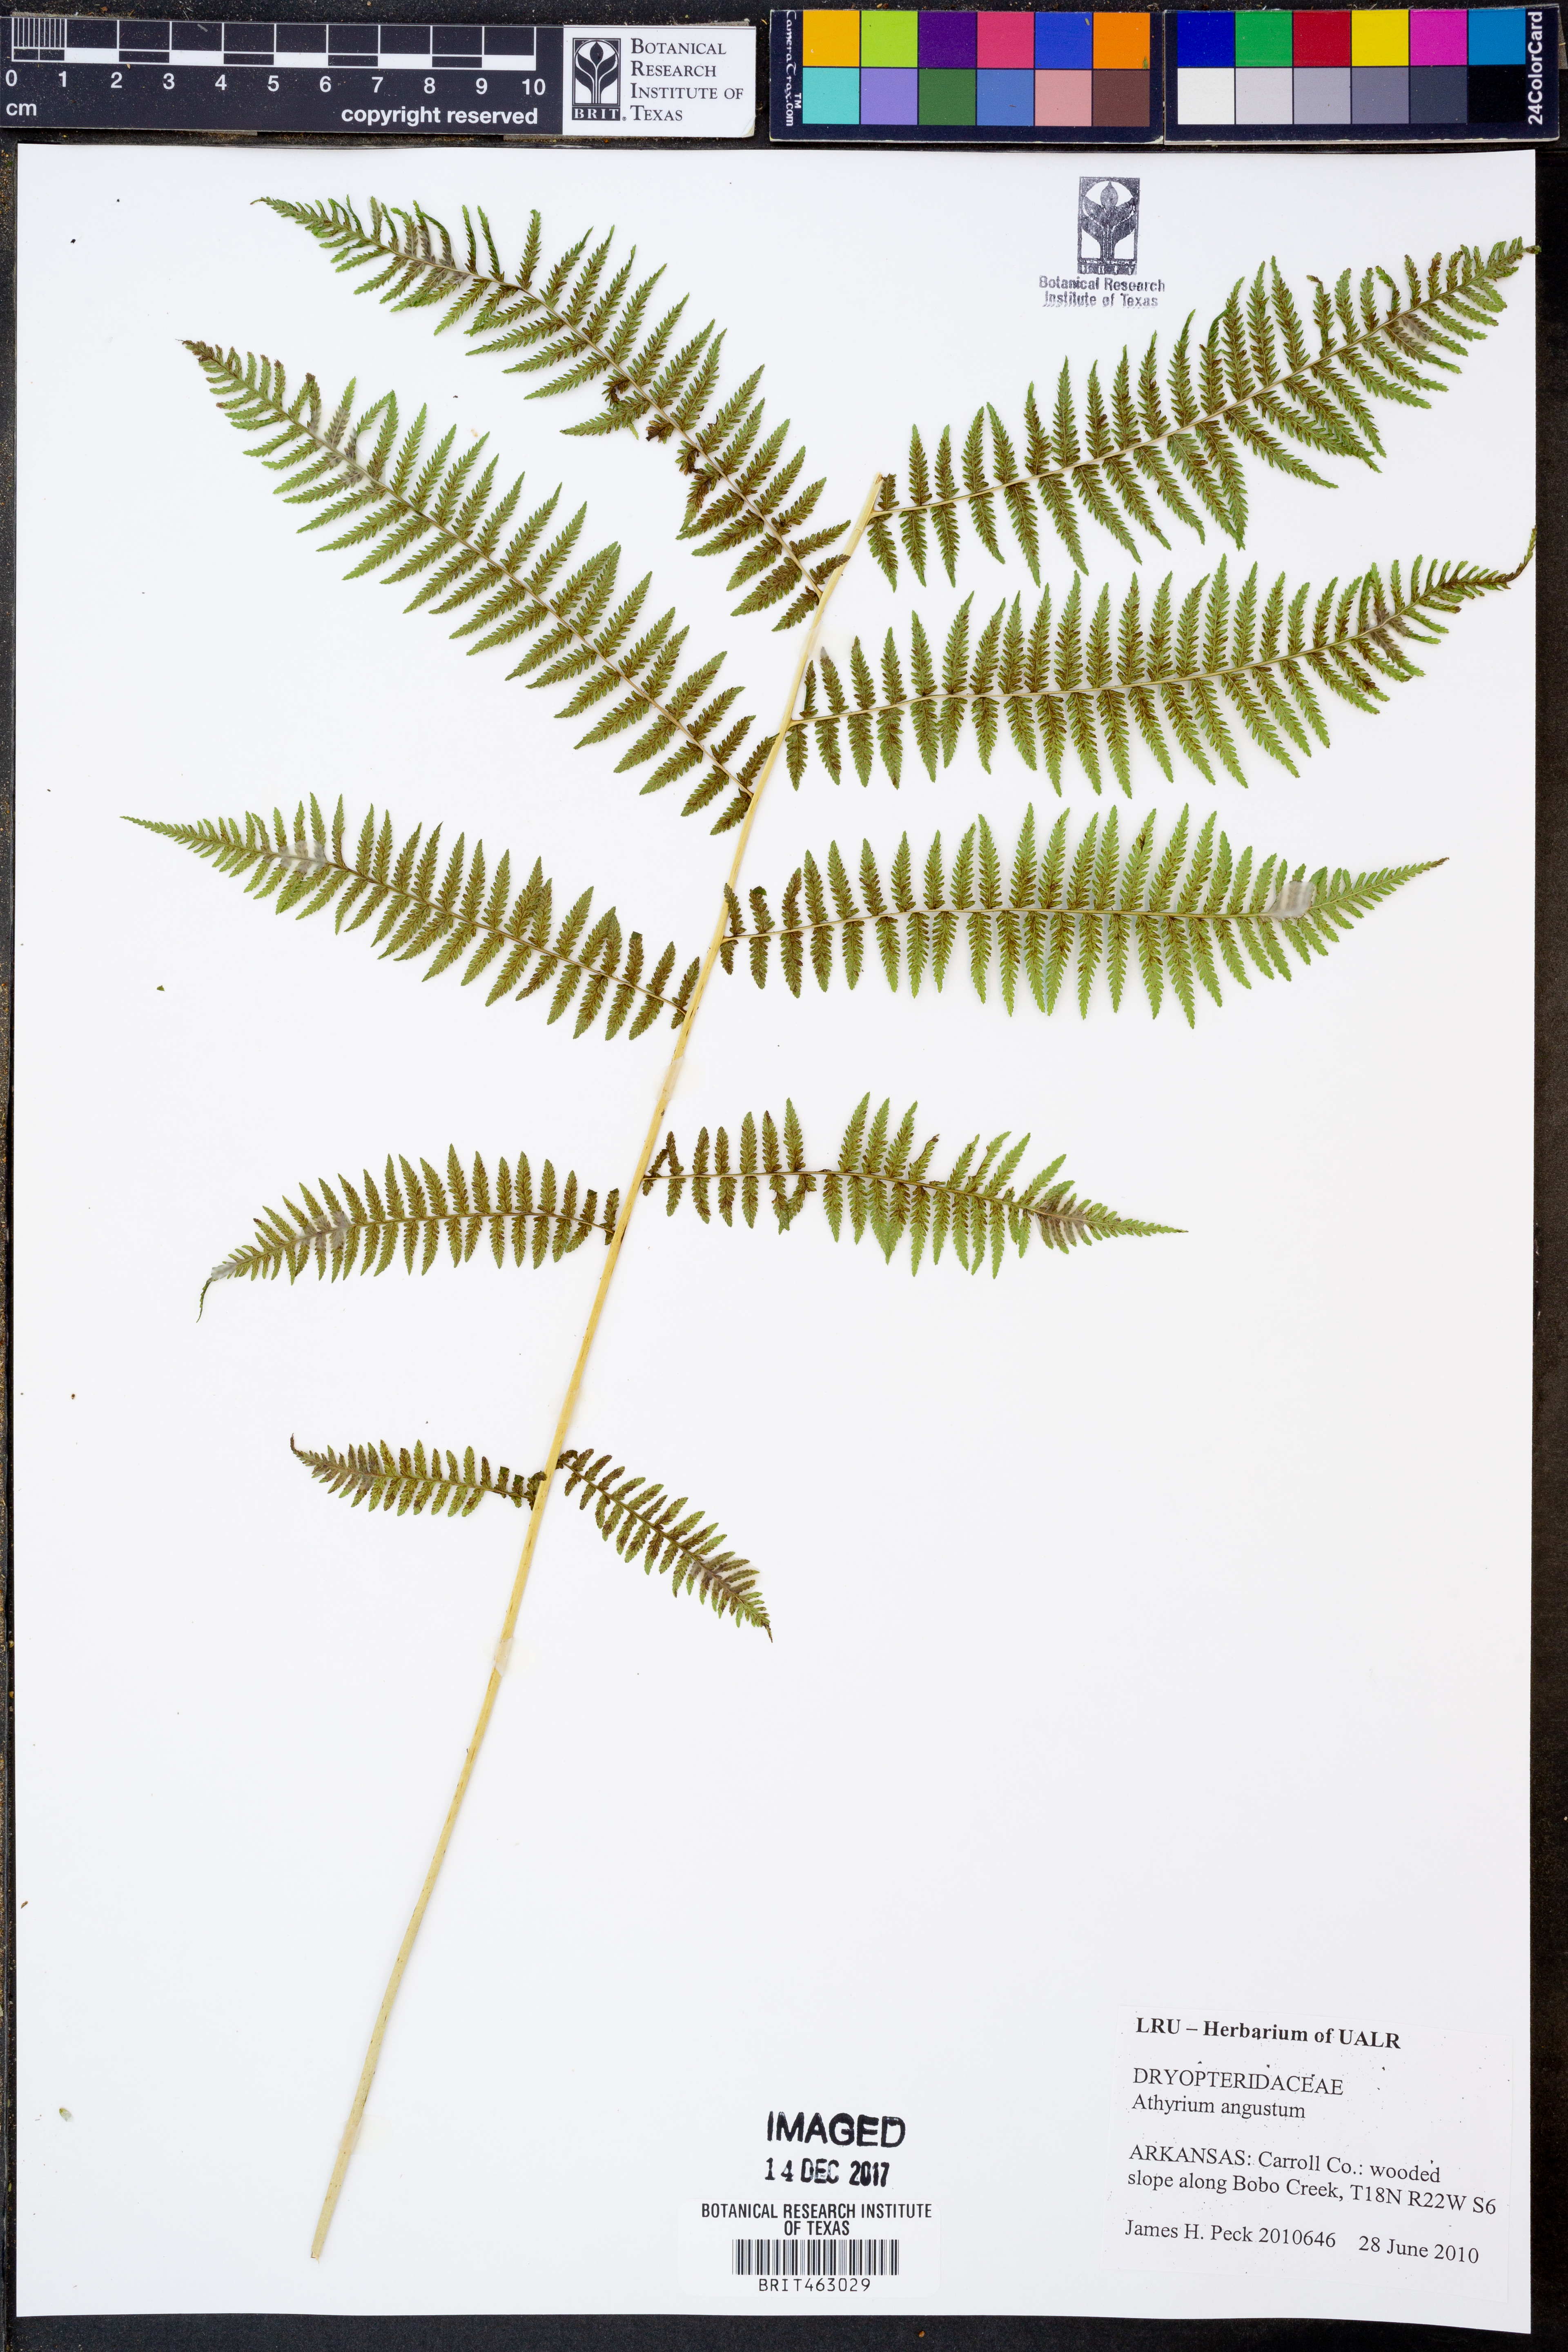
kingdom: Plantae
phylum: Tracheophyta
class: Polypodiopsida
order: Polypodiales
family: Athyriaceae
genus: Athyrium
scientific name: Athyrium angustum
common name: Northern lady fern
